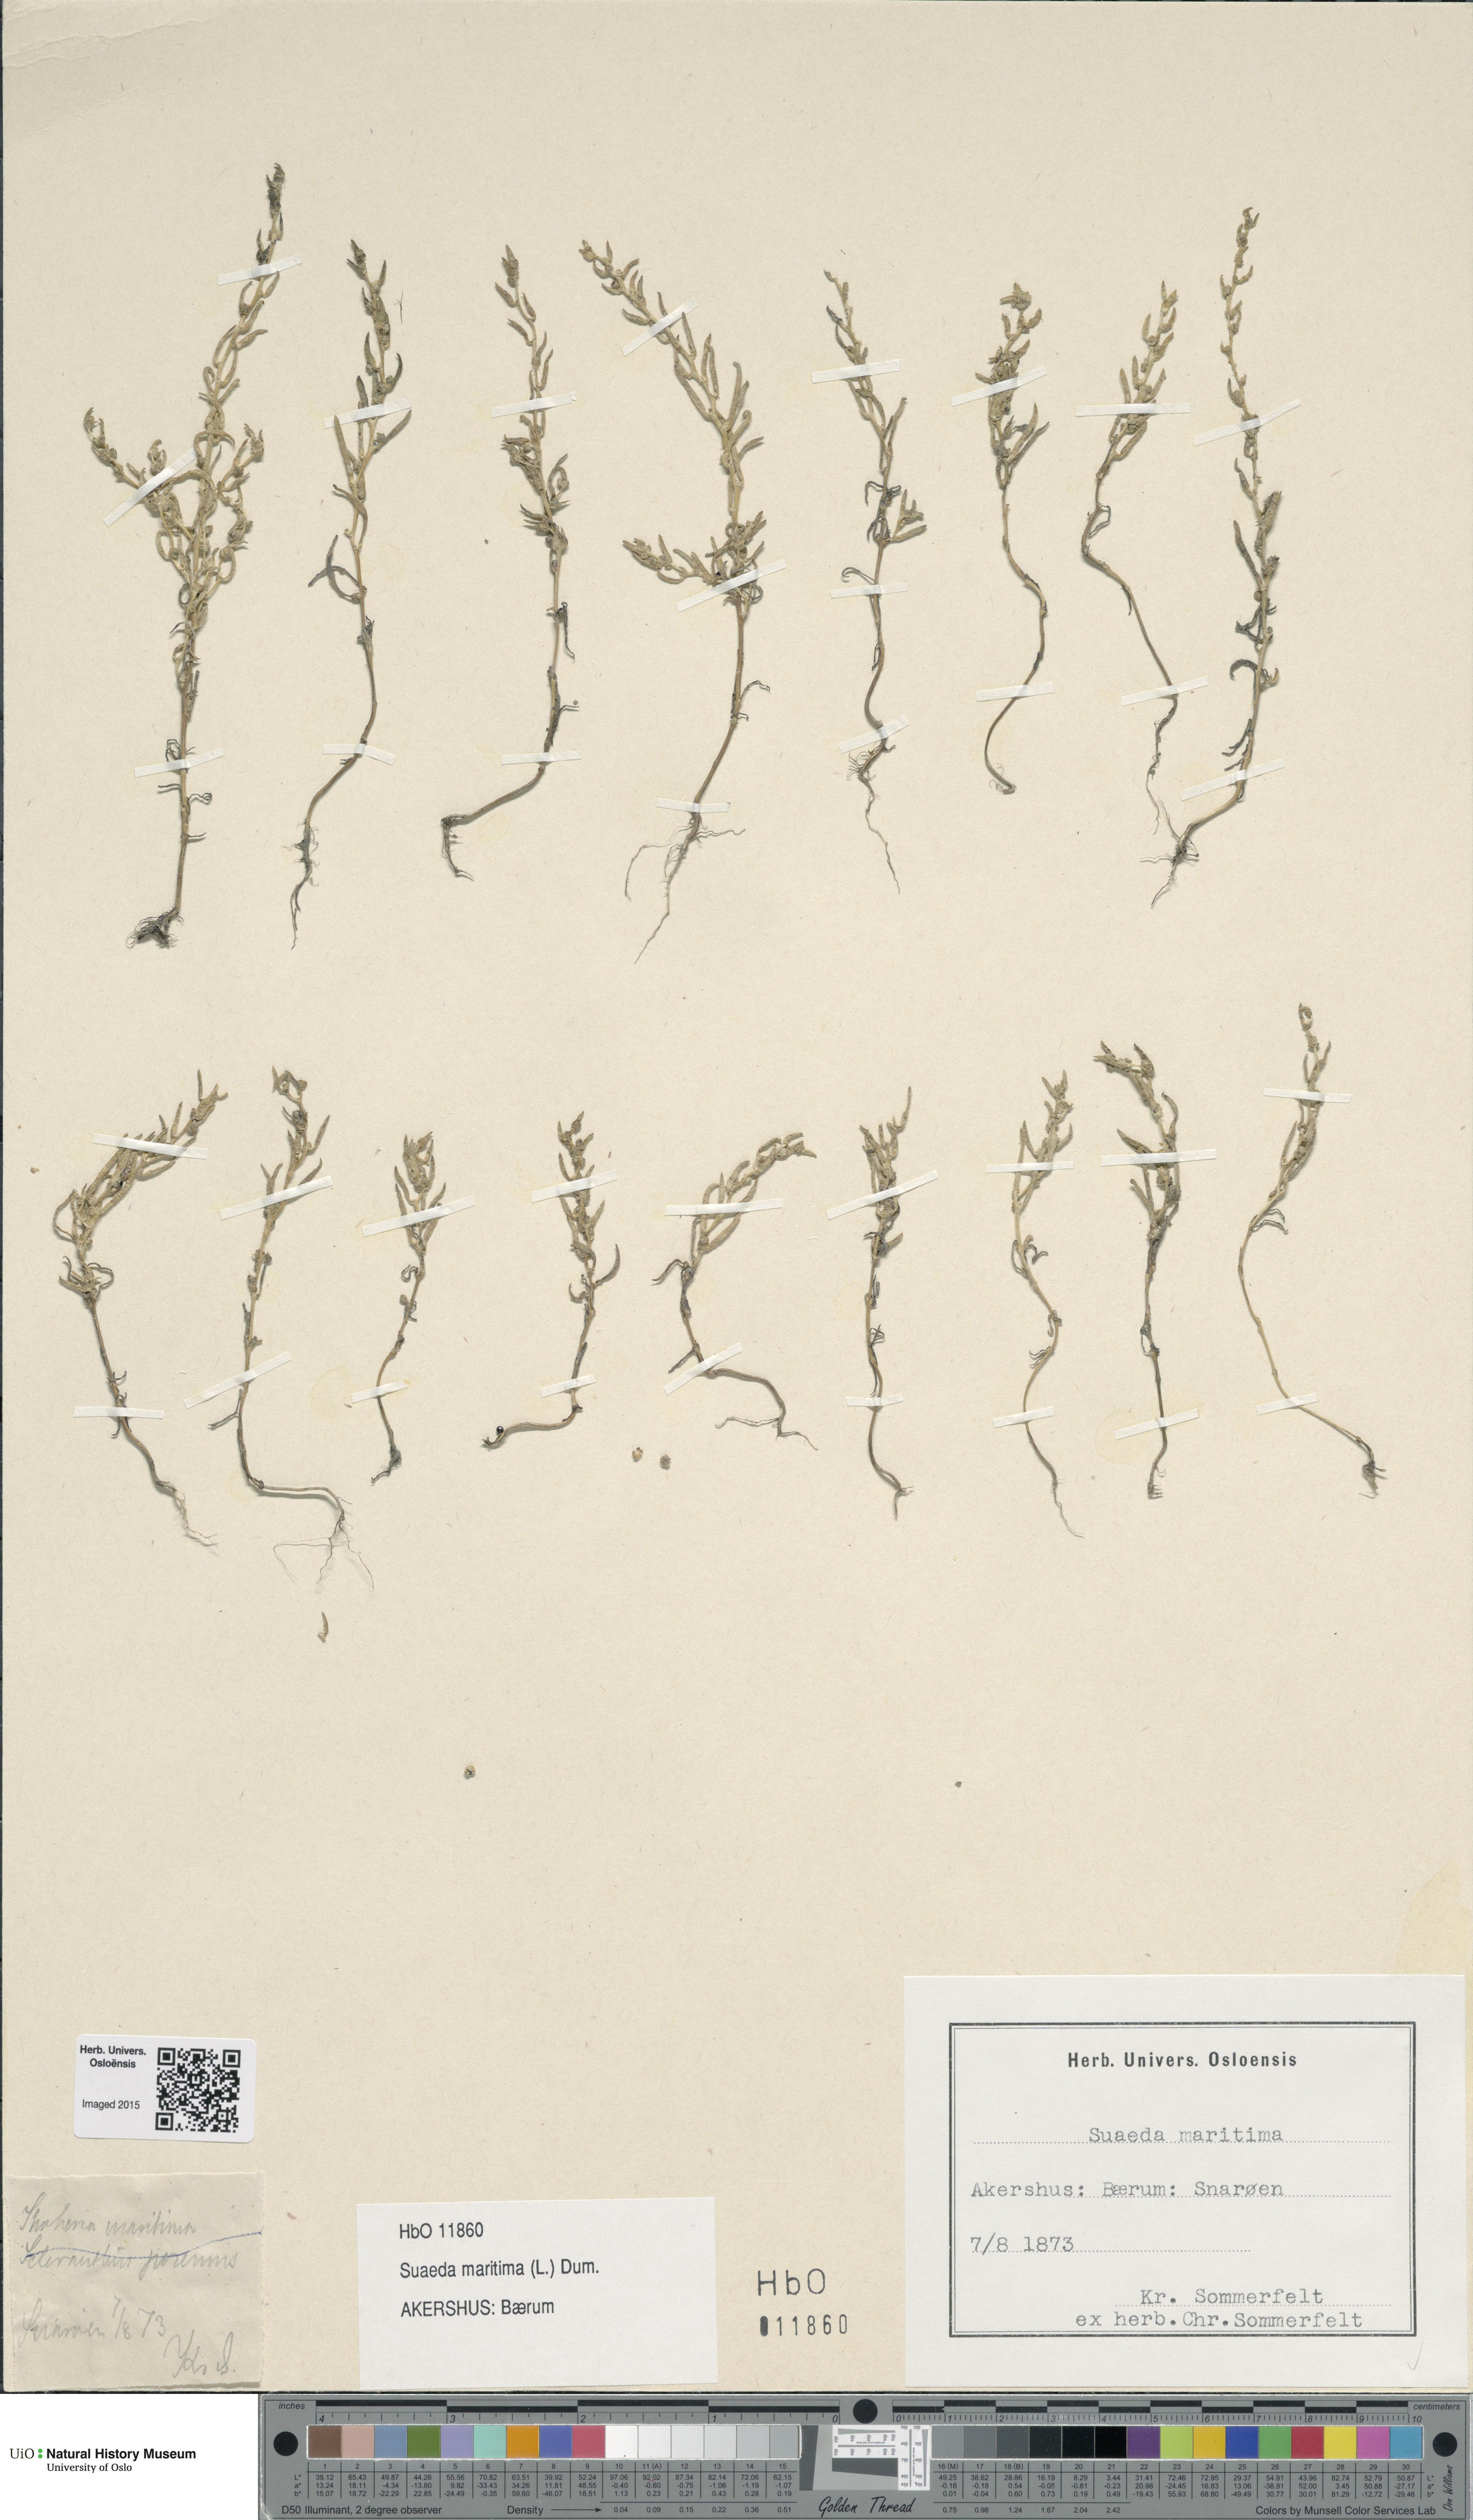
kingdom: Plantae
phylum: Tracheophyta
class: Magnoliopsida
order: Caryophyllales
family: Amaranthaceae
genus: Suaeda
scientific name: Suaeda maritima
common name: Annual sea-blite
